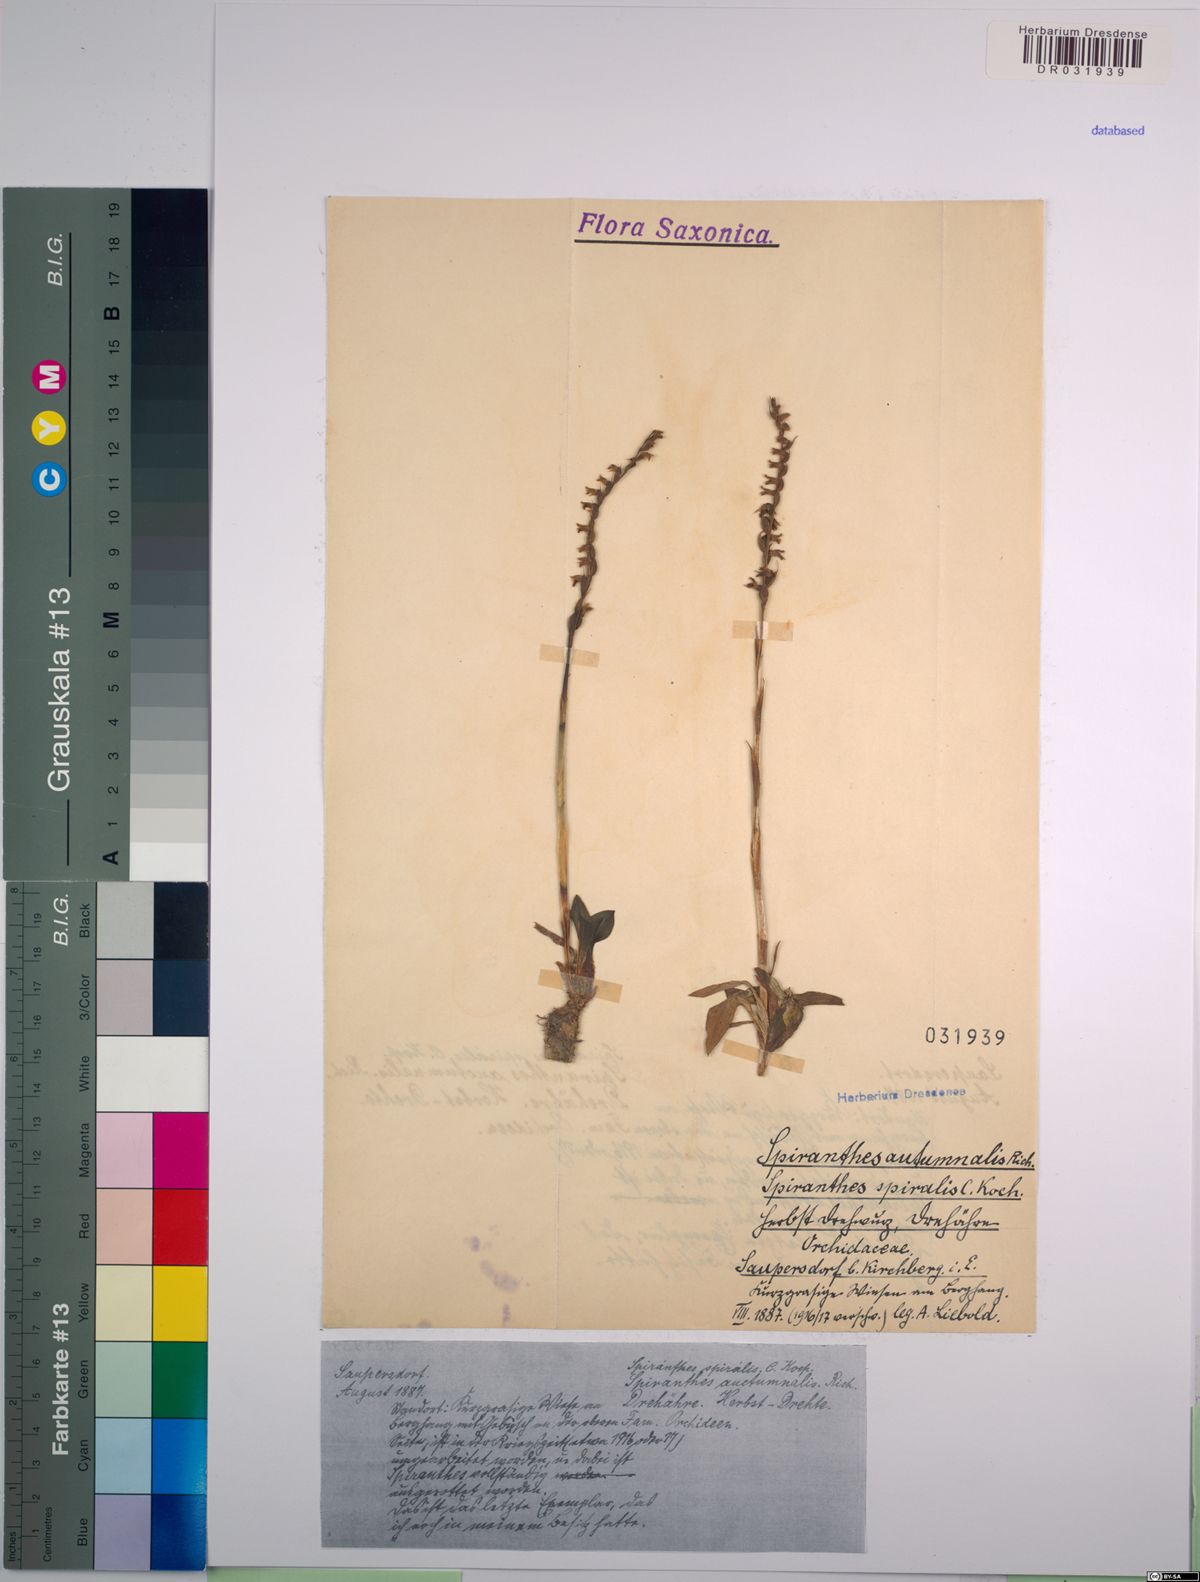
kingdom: Plantae
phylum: Tracheophyta
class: Liliopsida
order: Asparagales
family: Orchidaceae
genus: Spiranthes
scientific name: Spiranthes spiralis
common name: Autumn lady's-tresses
